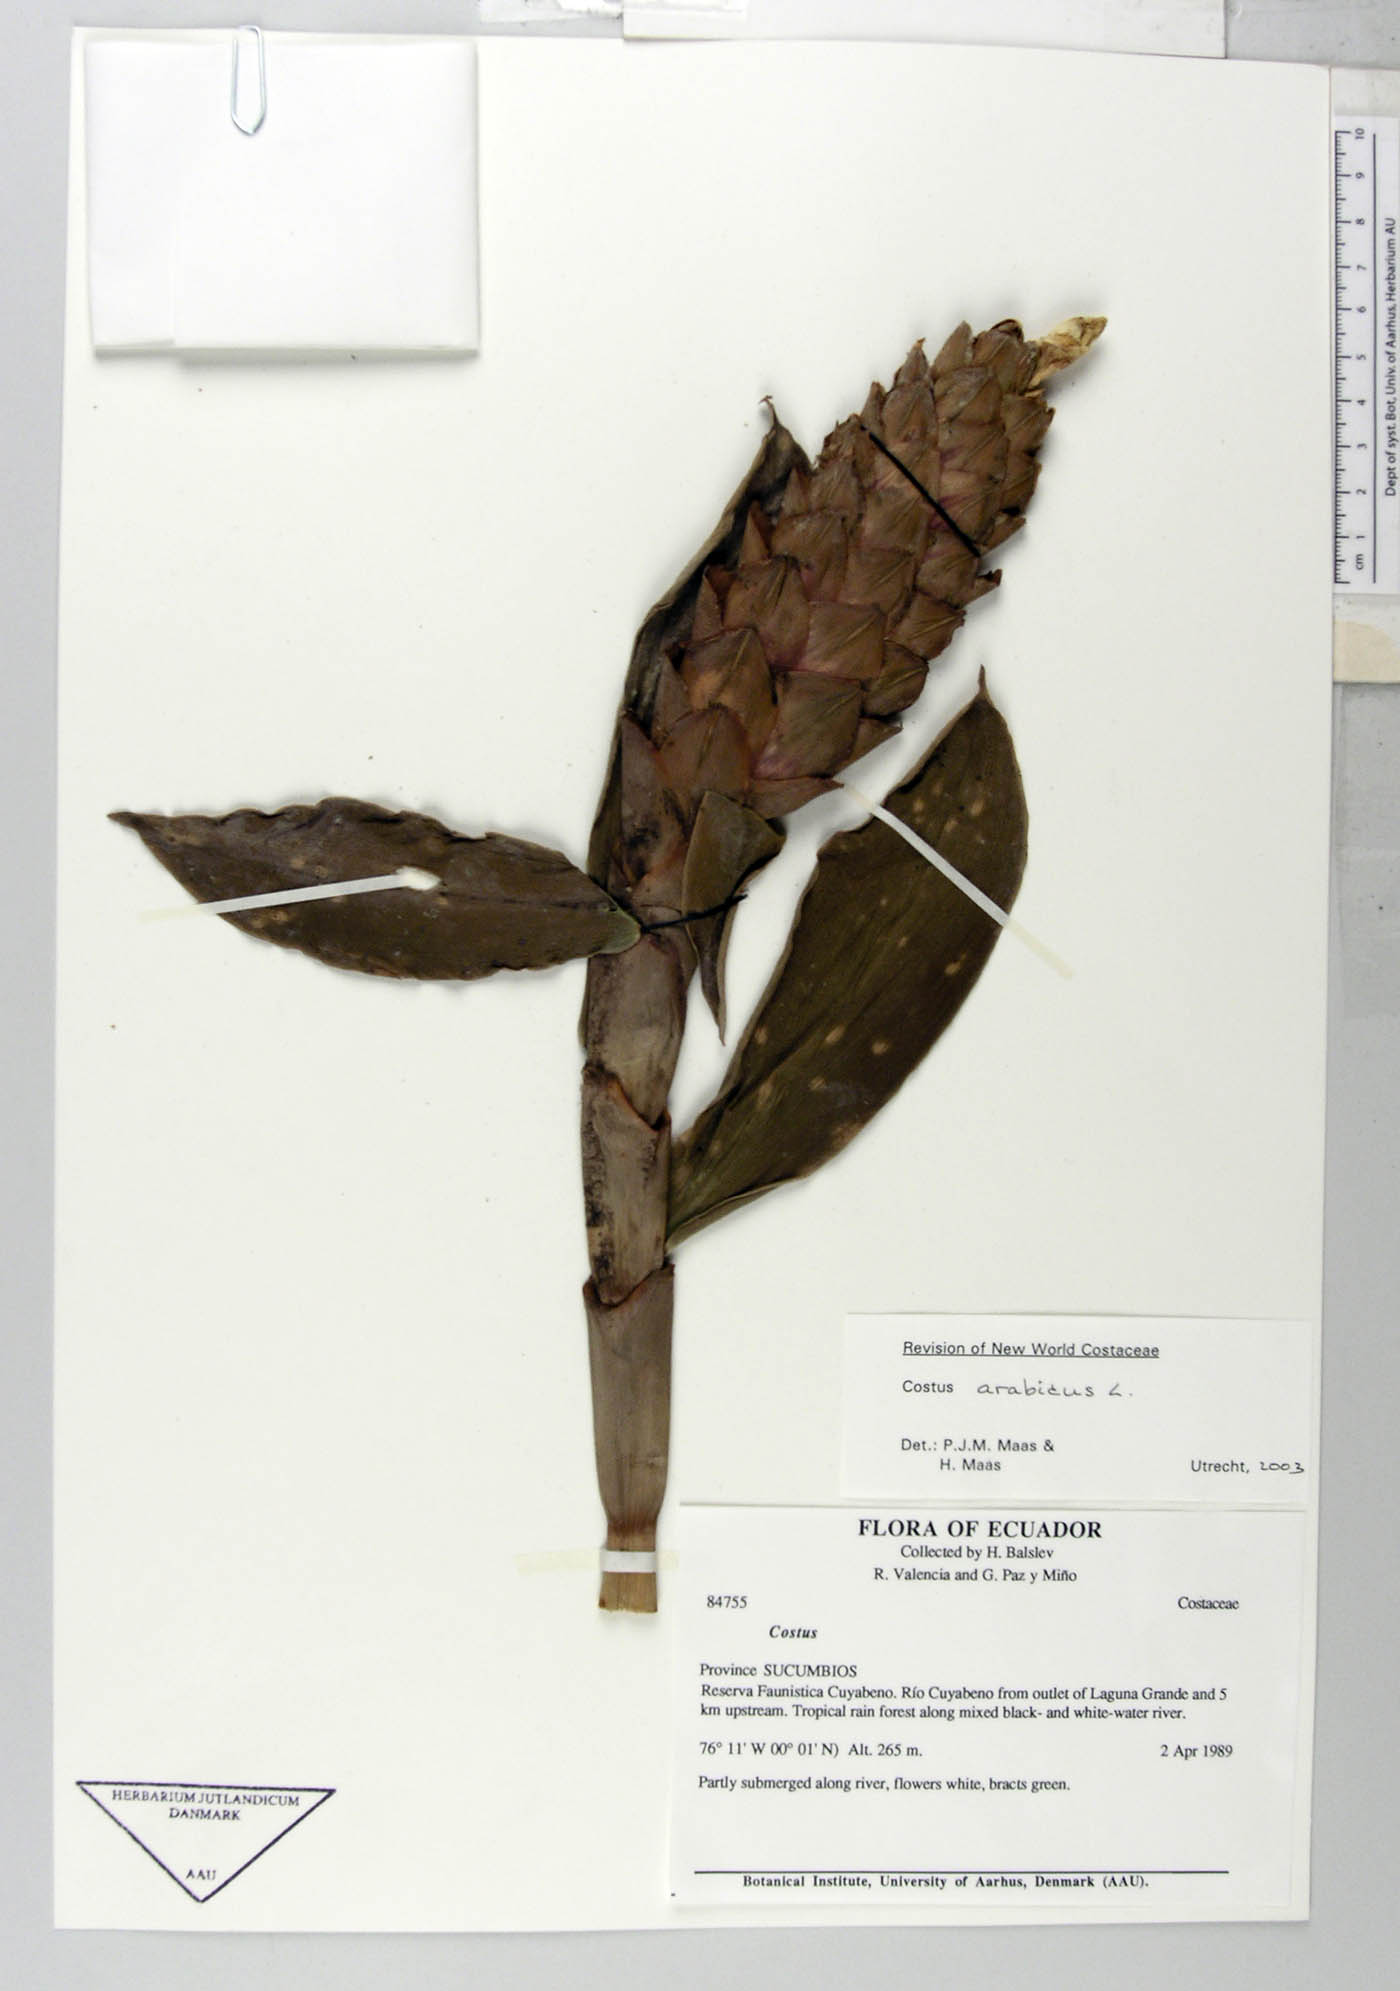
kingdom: Plantae
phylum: Tracheophyta
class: Liliopsida
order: Zingiberales
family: Costaceae
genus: Costus
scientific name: Costus
